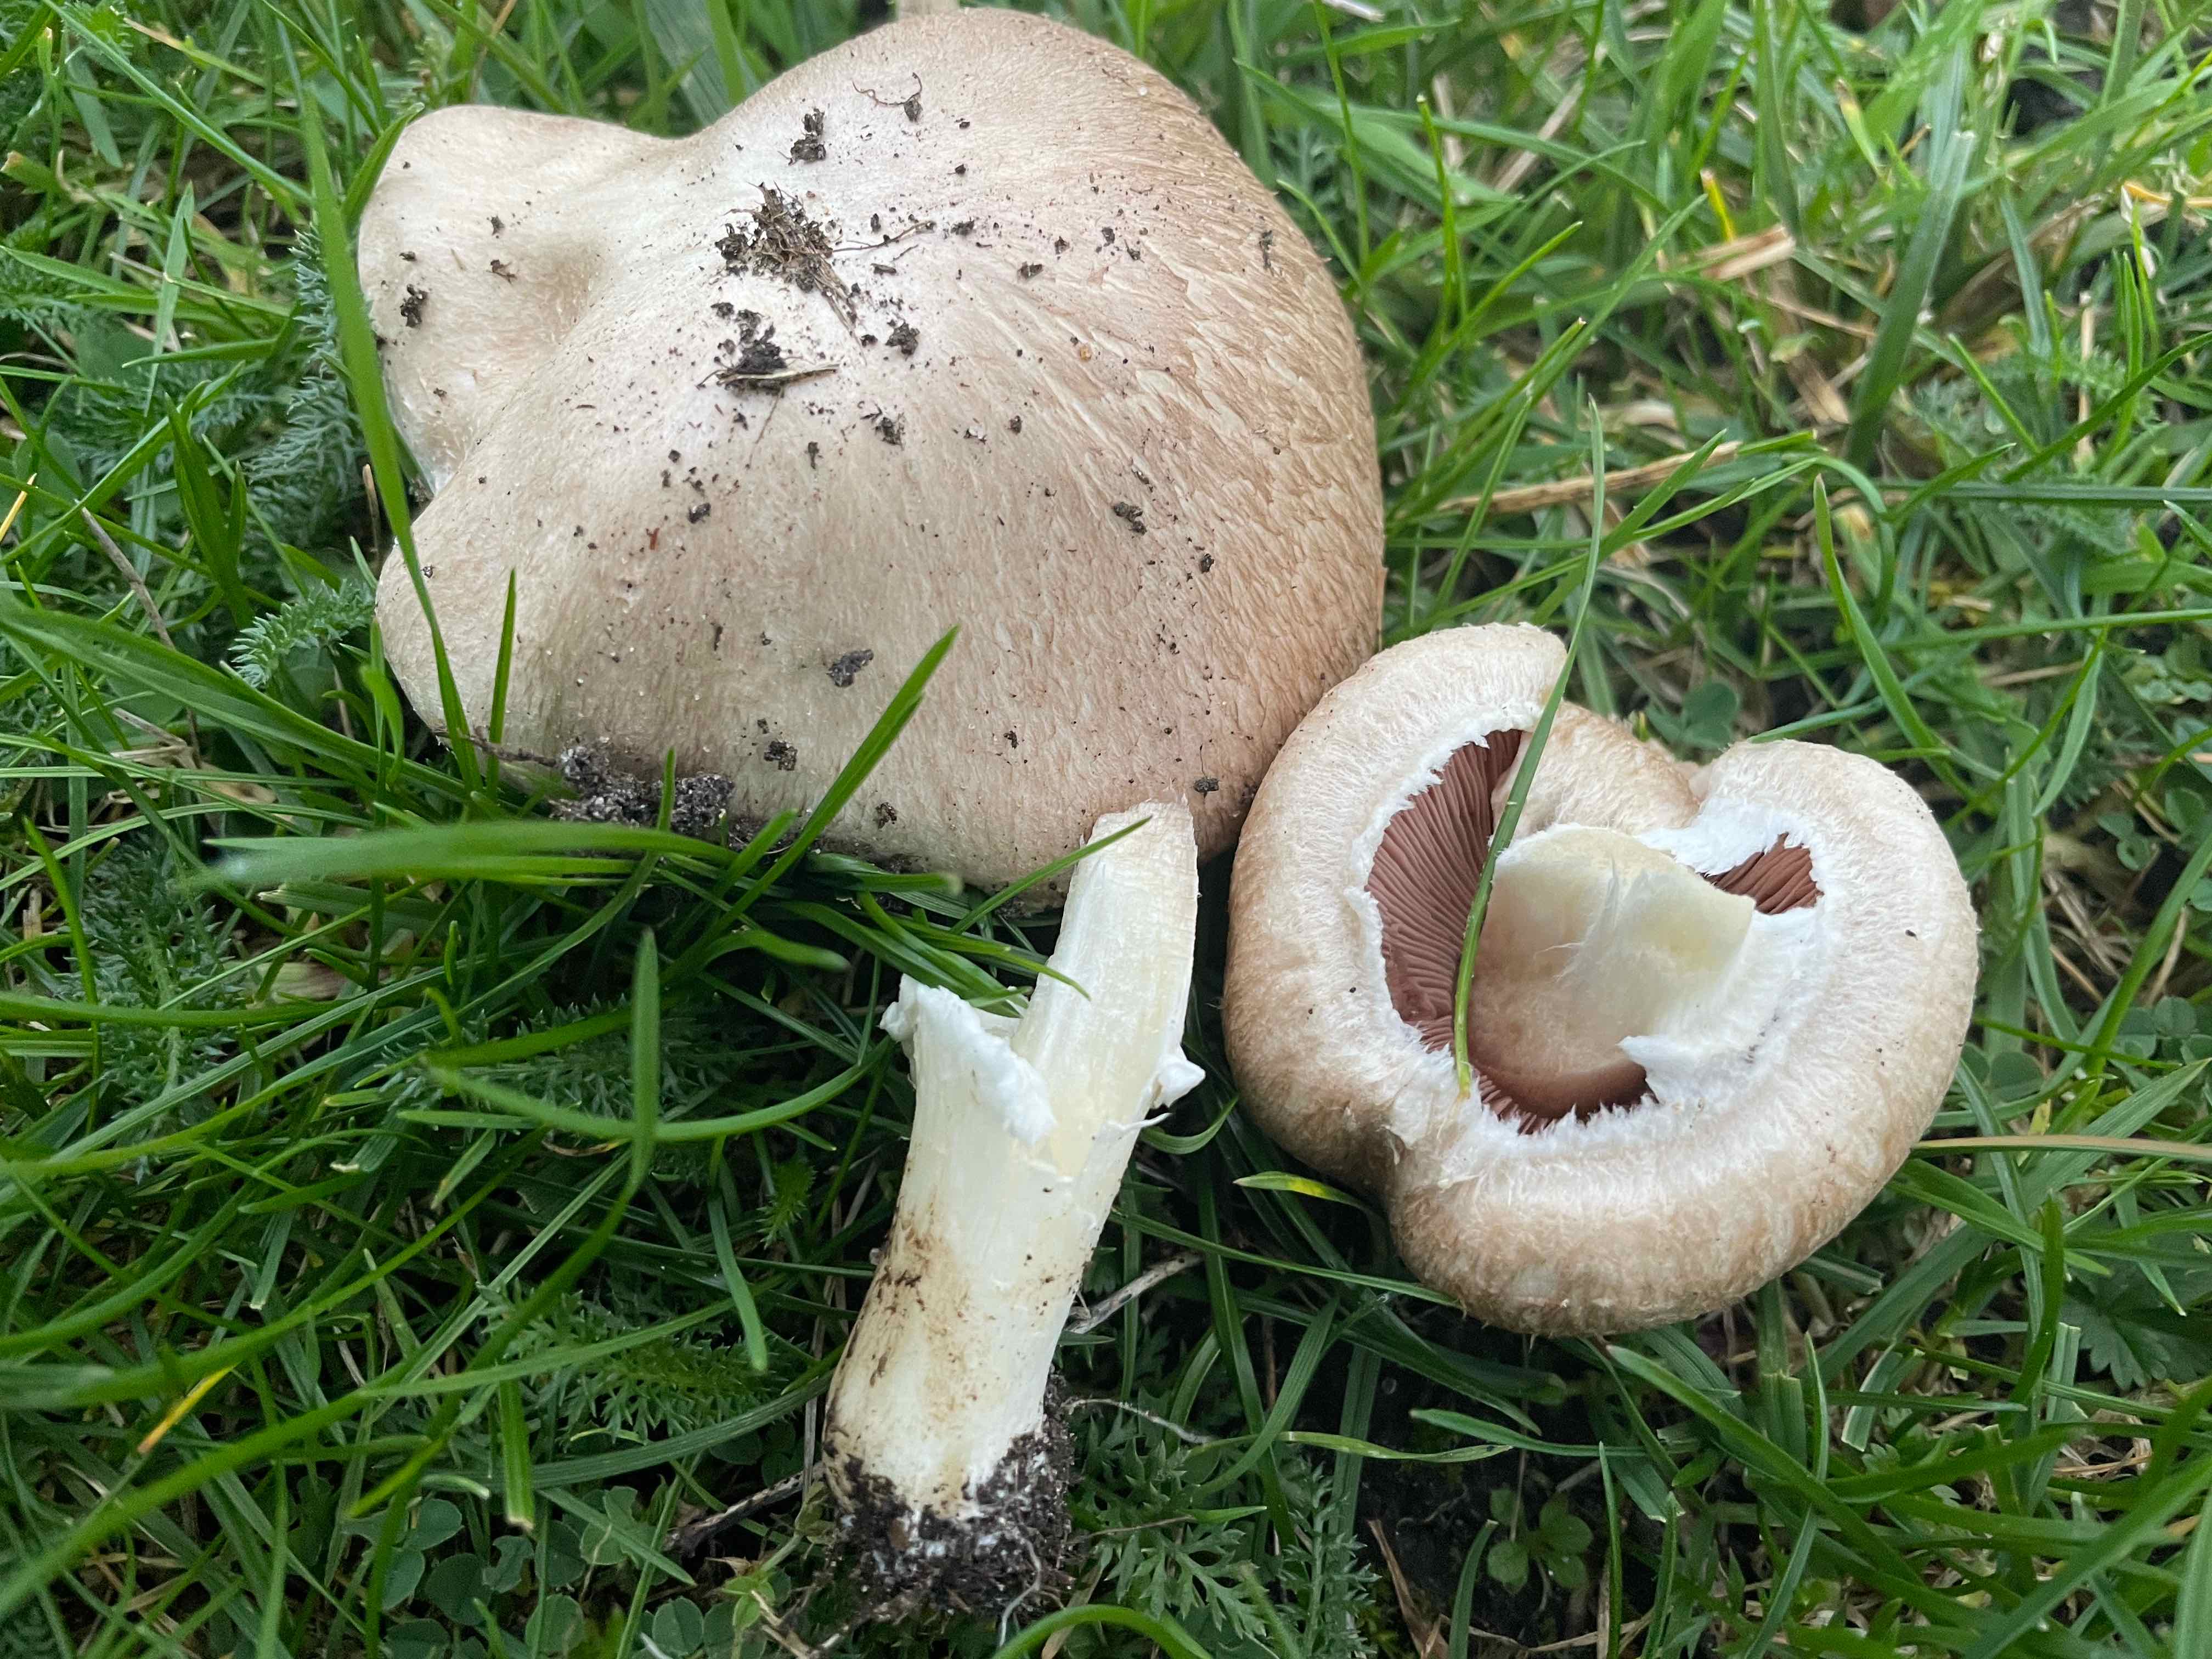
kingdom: Fungi
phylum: Basidiomycota
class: Agaricomycetes
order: Agaricales
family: Agaricaceae
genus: Agaricus
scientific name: Agaricus
